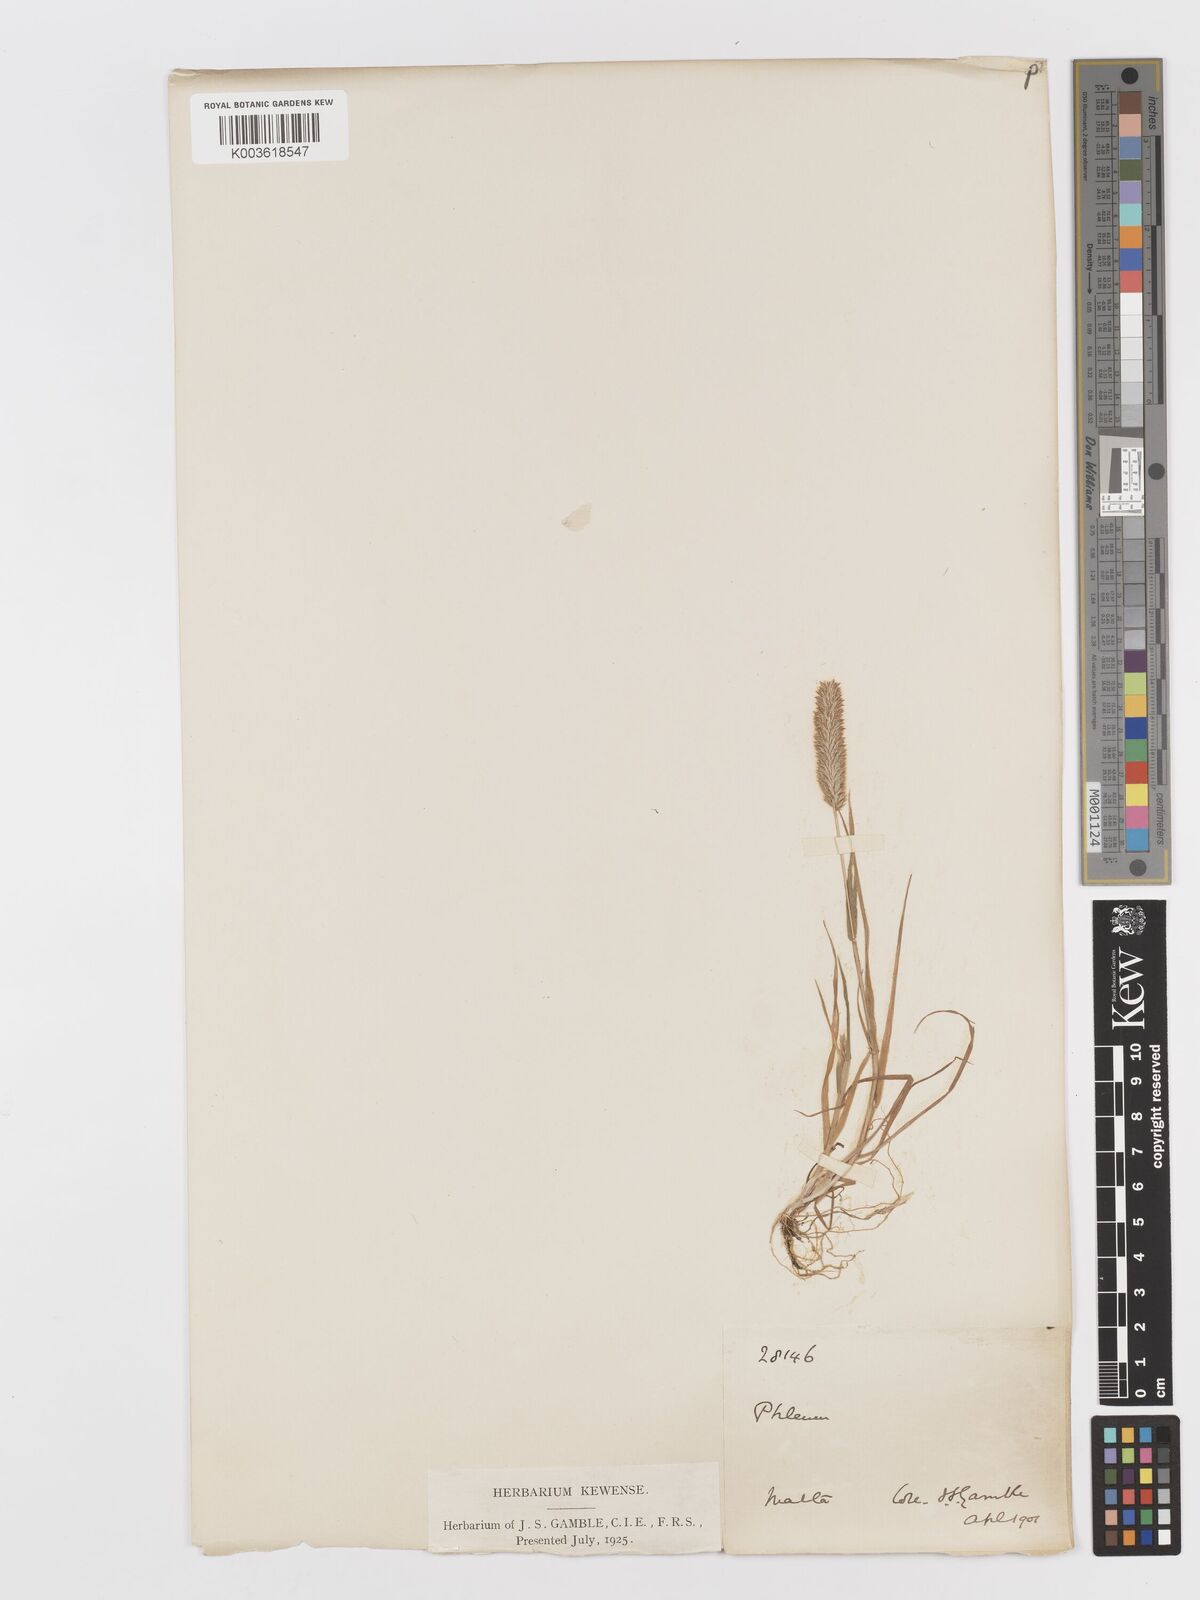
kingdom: Plantae
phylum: Tracheophyta
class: Liliopsida
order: Poales
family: Poaceae
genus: Rostraria
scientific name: Rostraria cristata
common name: Mediterranean hair-grass
